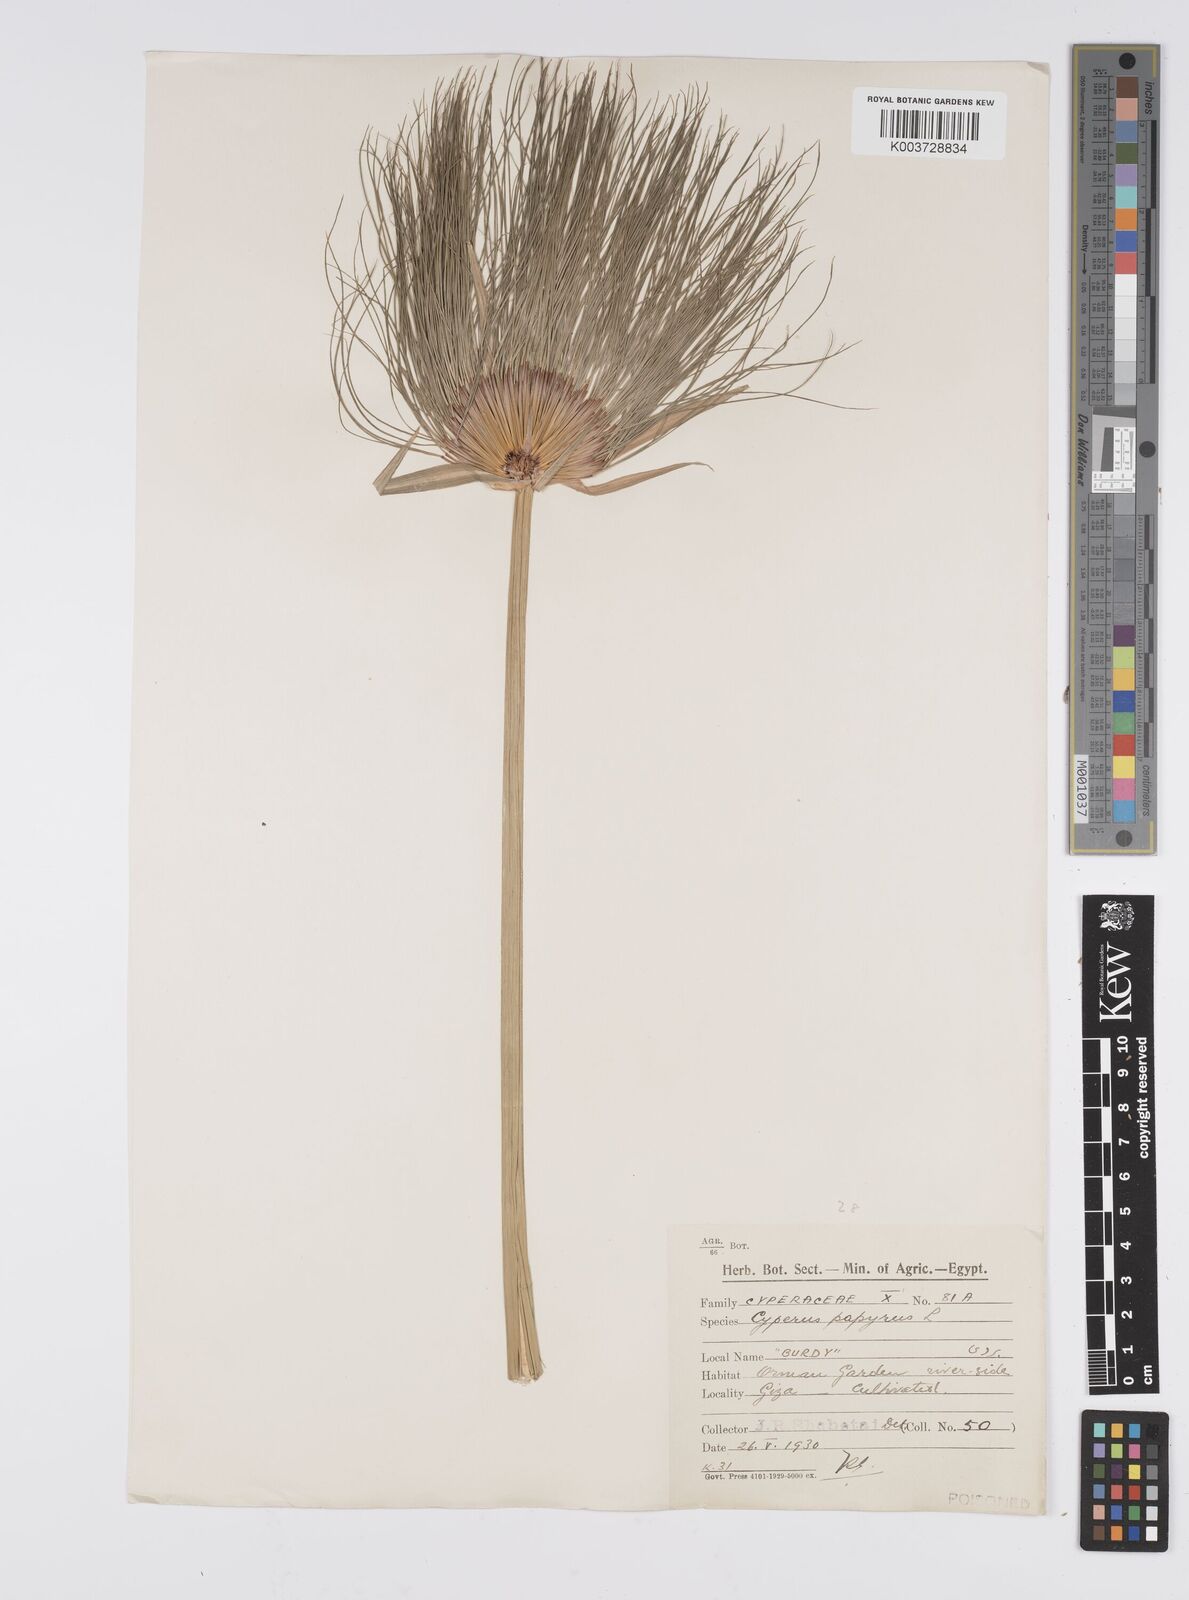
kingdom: Plantae
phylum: Tracheophyta
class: Liliopsida
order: Poales
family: Cyperaceae
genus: Cyperus
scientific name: Cyperus papyrus
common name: Papyrus
